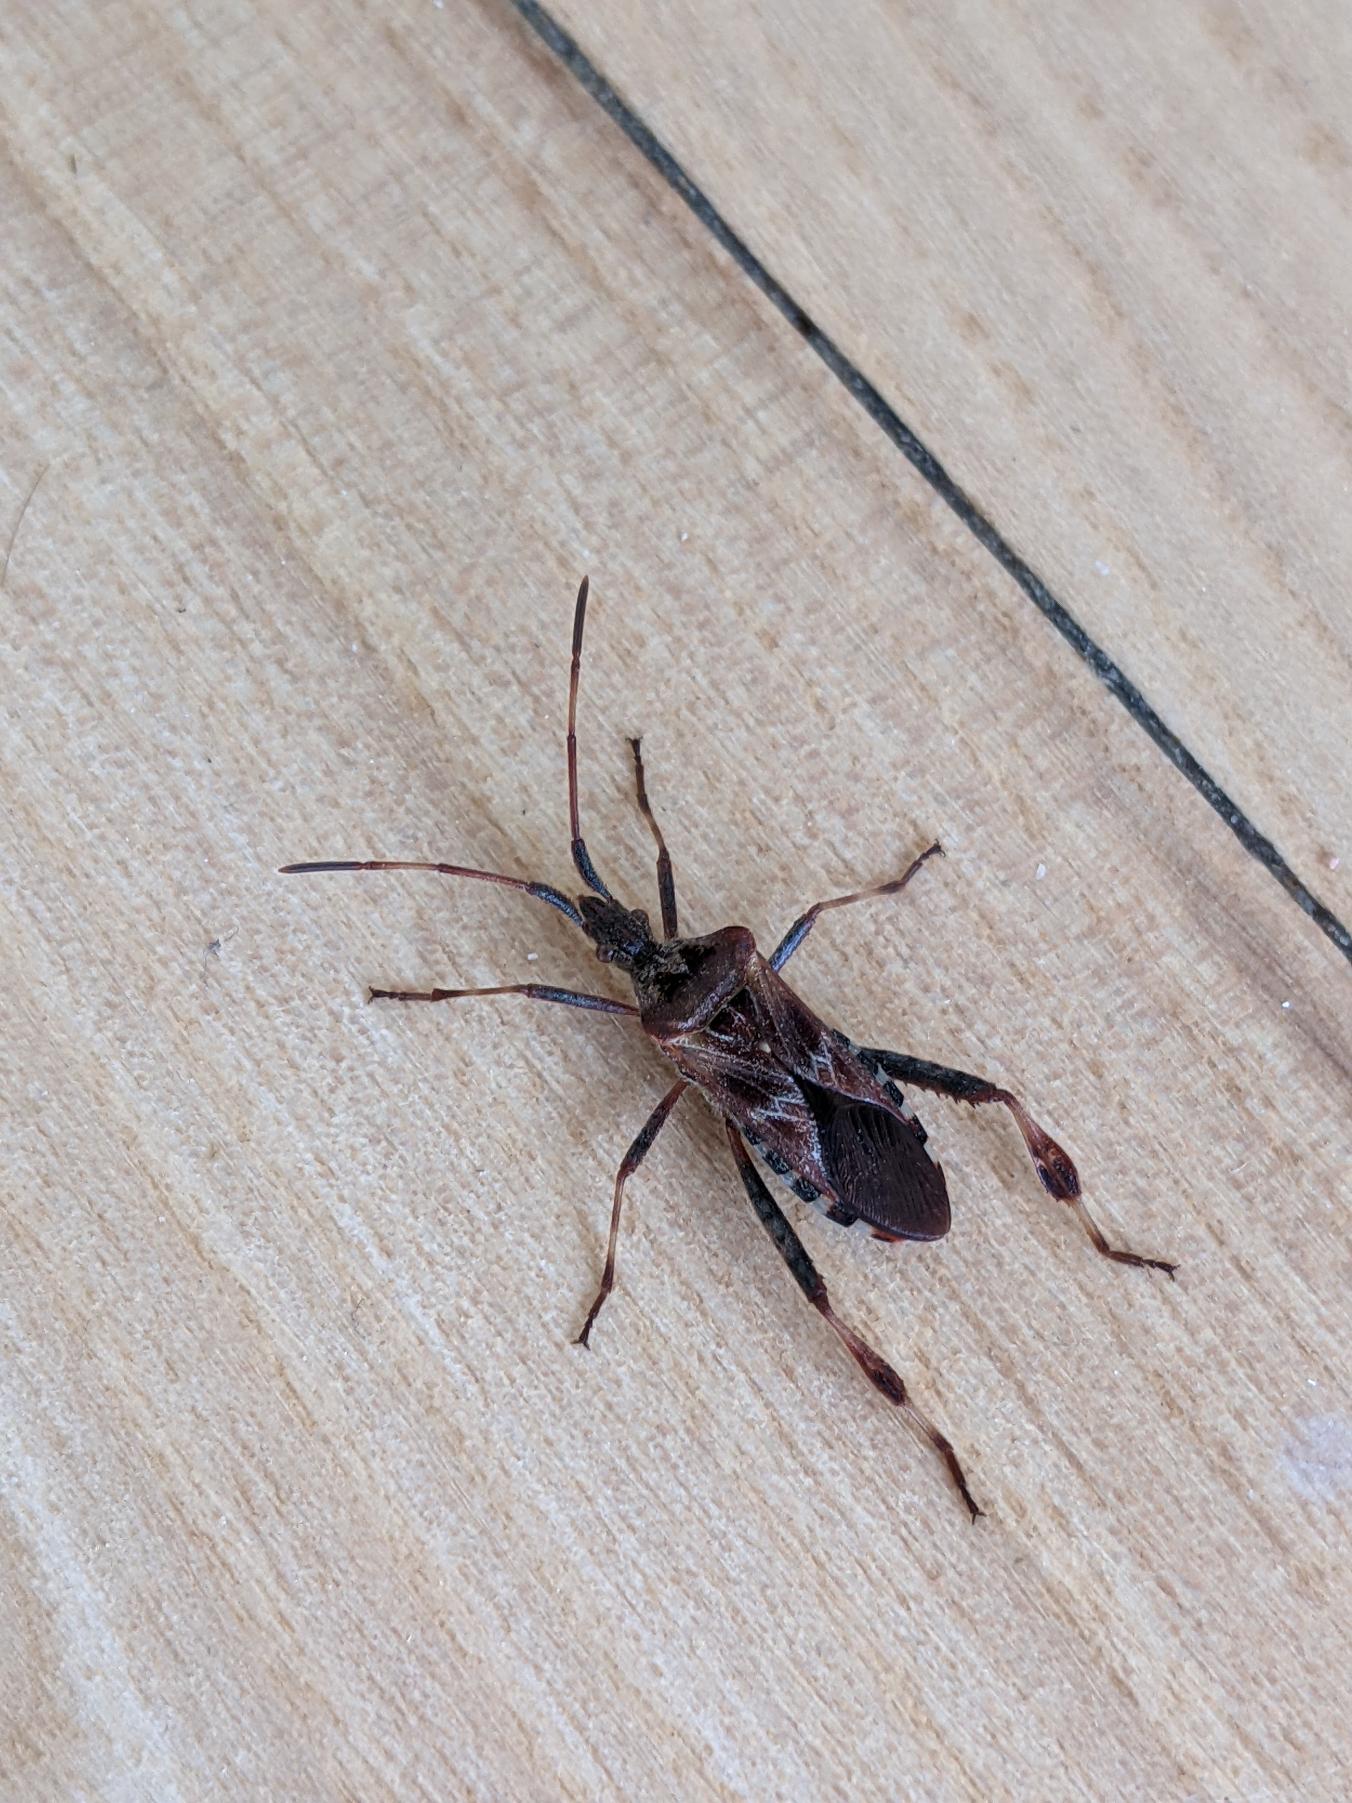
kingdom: Animalia
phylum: Arthropoda
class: Insecta
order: Hemiptera
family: Coreidae
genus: Leptoglossus
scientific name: Leptoglossus occidentalis
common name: Amerikansk fyrretæge
